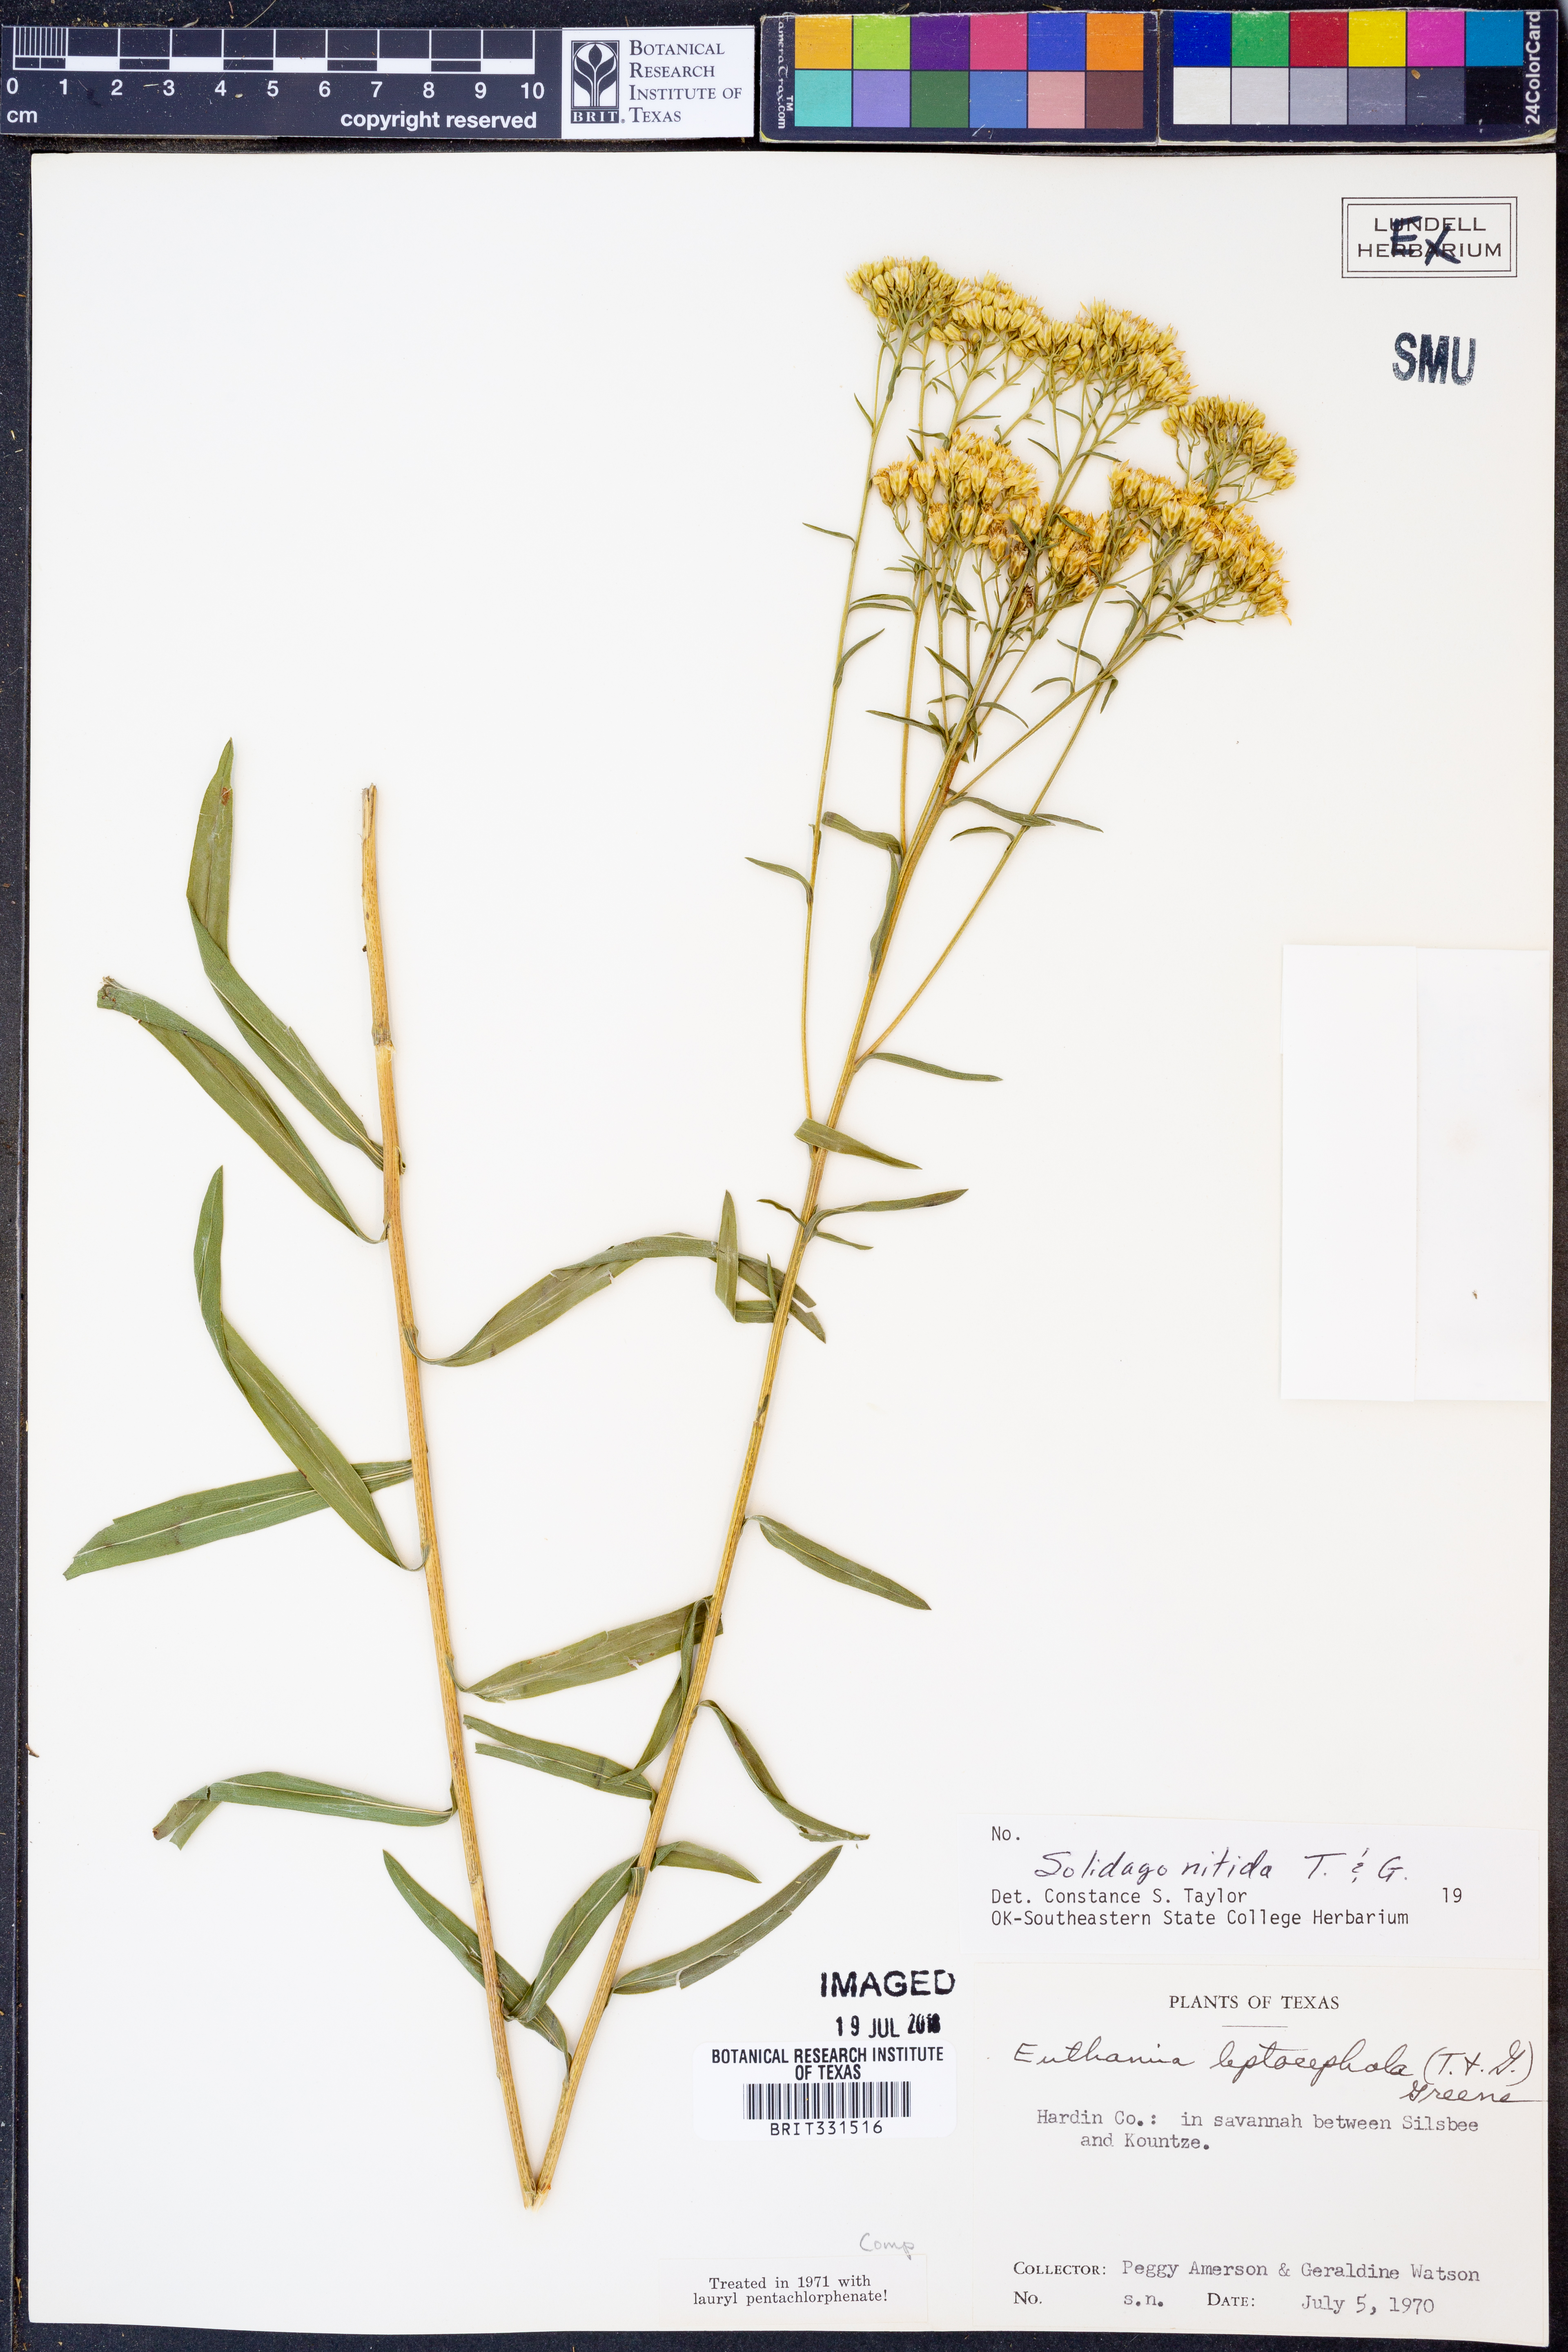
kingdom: Plantae
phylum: Tracheophyta
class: Magnoliopsida
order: Asterales
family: Asteraceae
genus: Solidago
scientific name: Solidago nitida
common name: Shiny goldenrod
